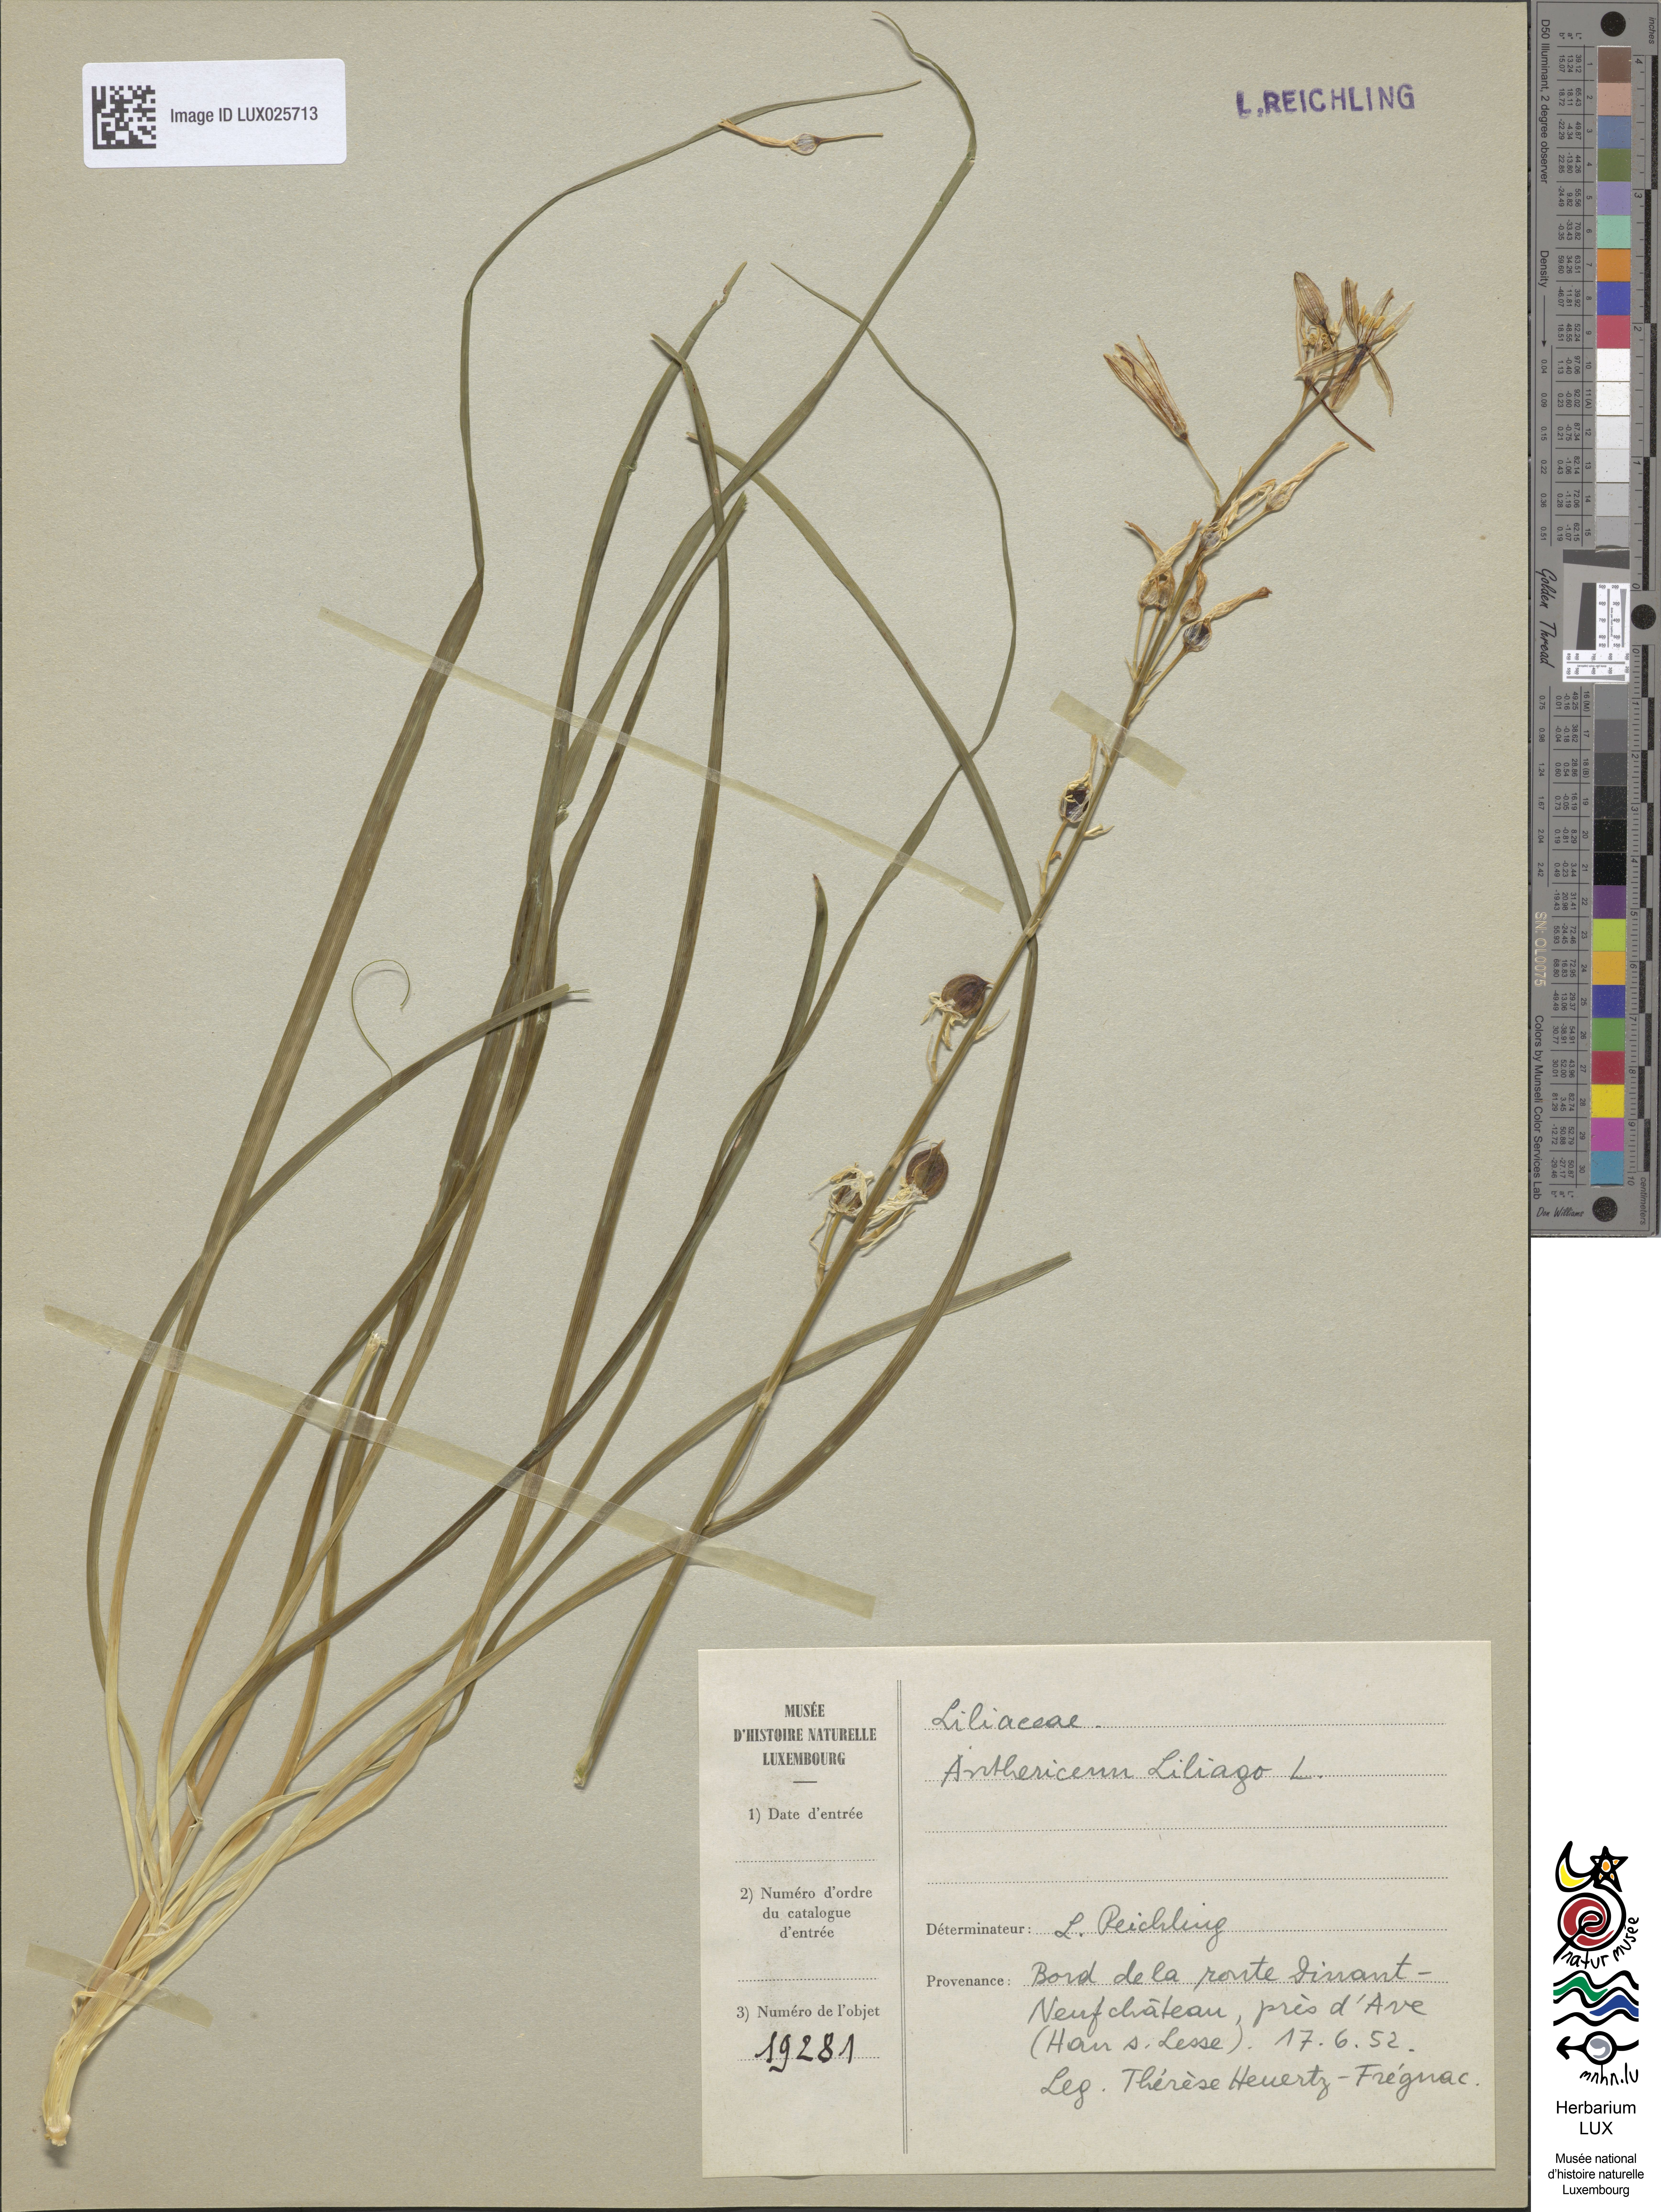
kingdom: Plantae
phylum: Tracheophyta
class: Liliopsida
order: Asparagales
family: Asparagaceae
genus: Anthericum
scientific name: Anthericum liliago
